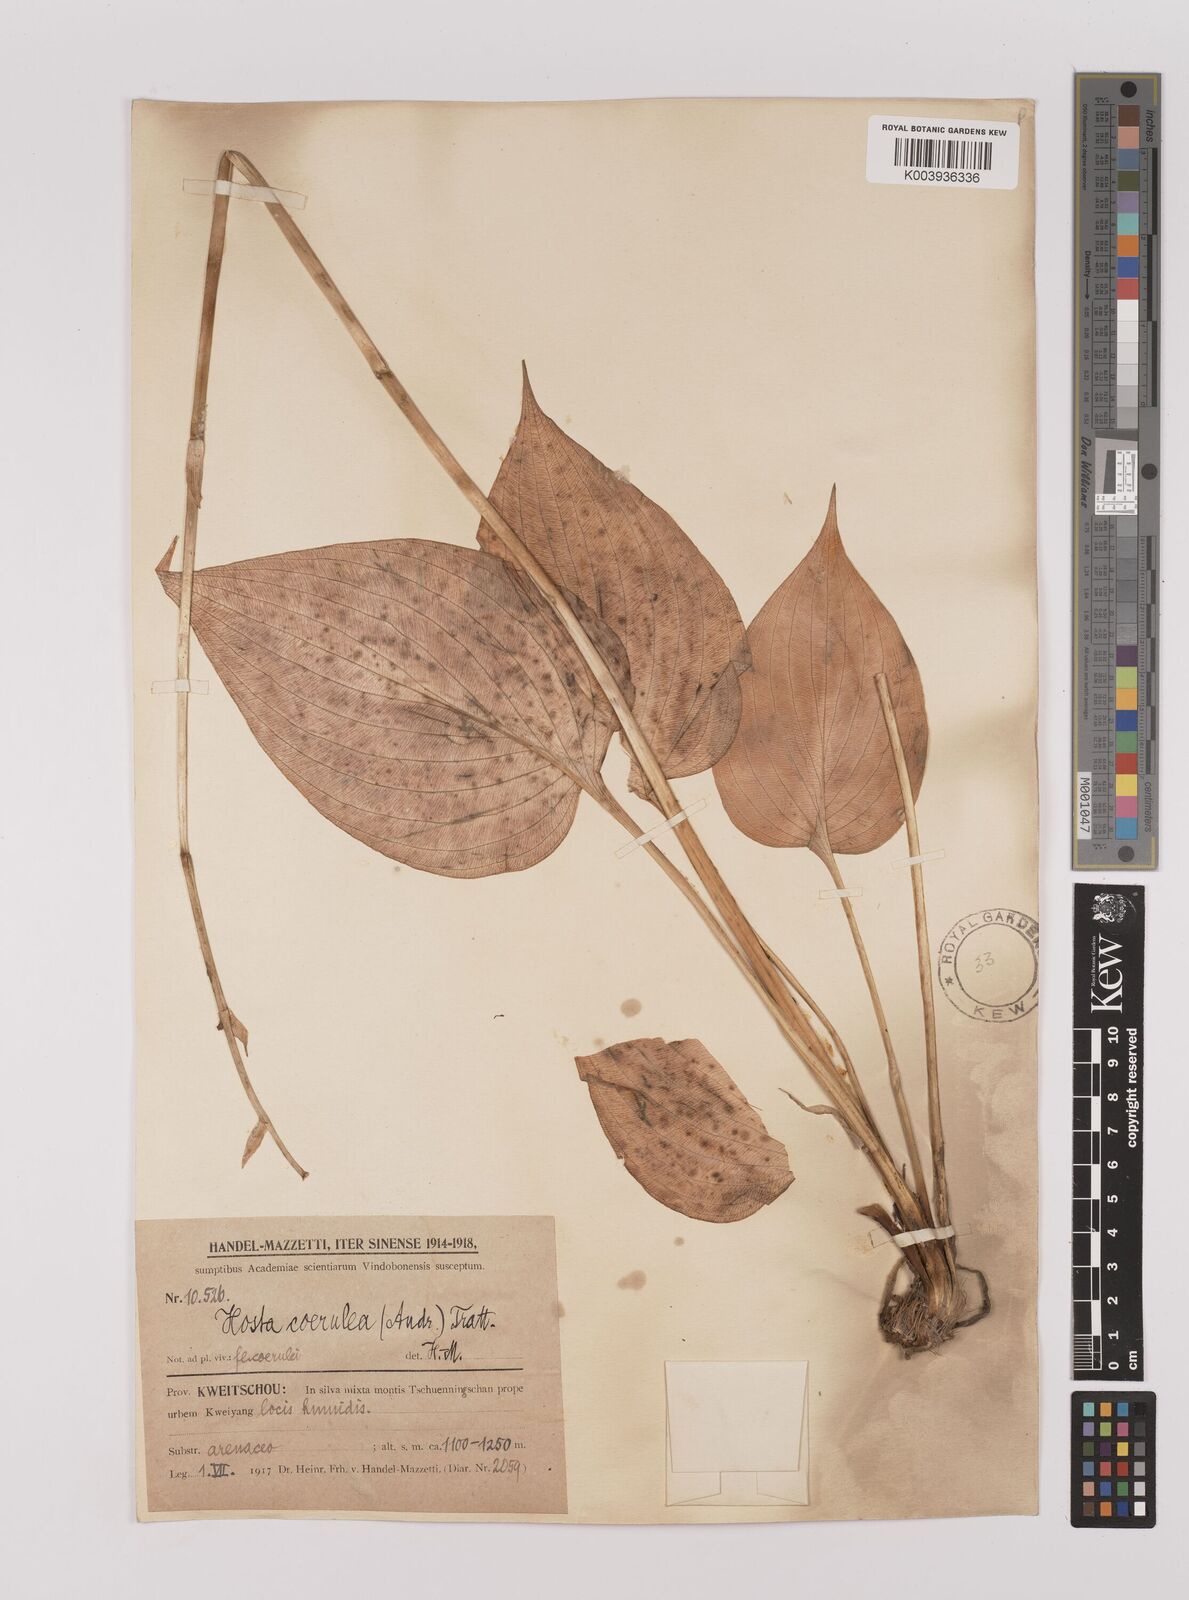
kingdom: Plantae
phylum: Tracheophyta
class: Liliopsida
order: Asparagales
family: Asparagaceae
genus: Hosta
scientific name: Hosta ventricosa
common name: Blue plantain-lily
